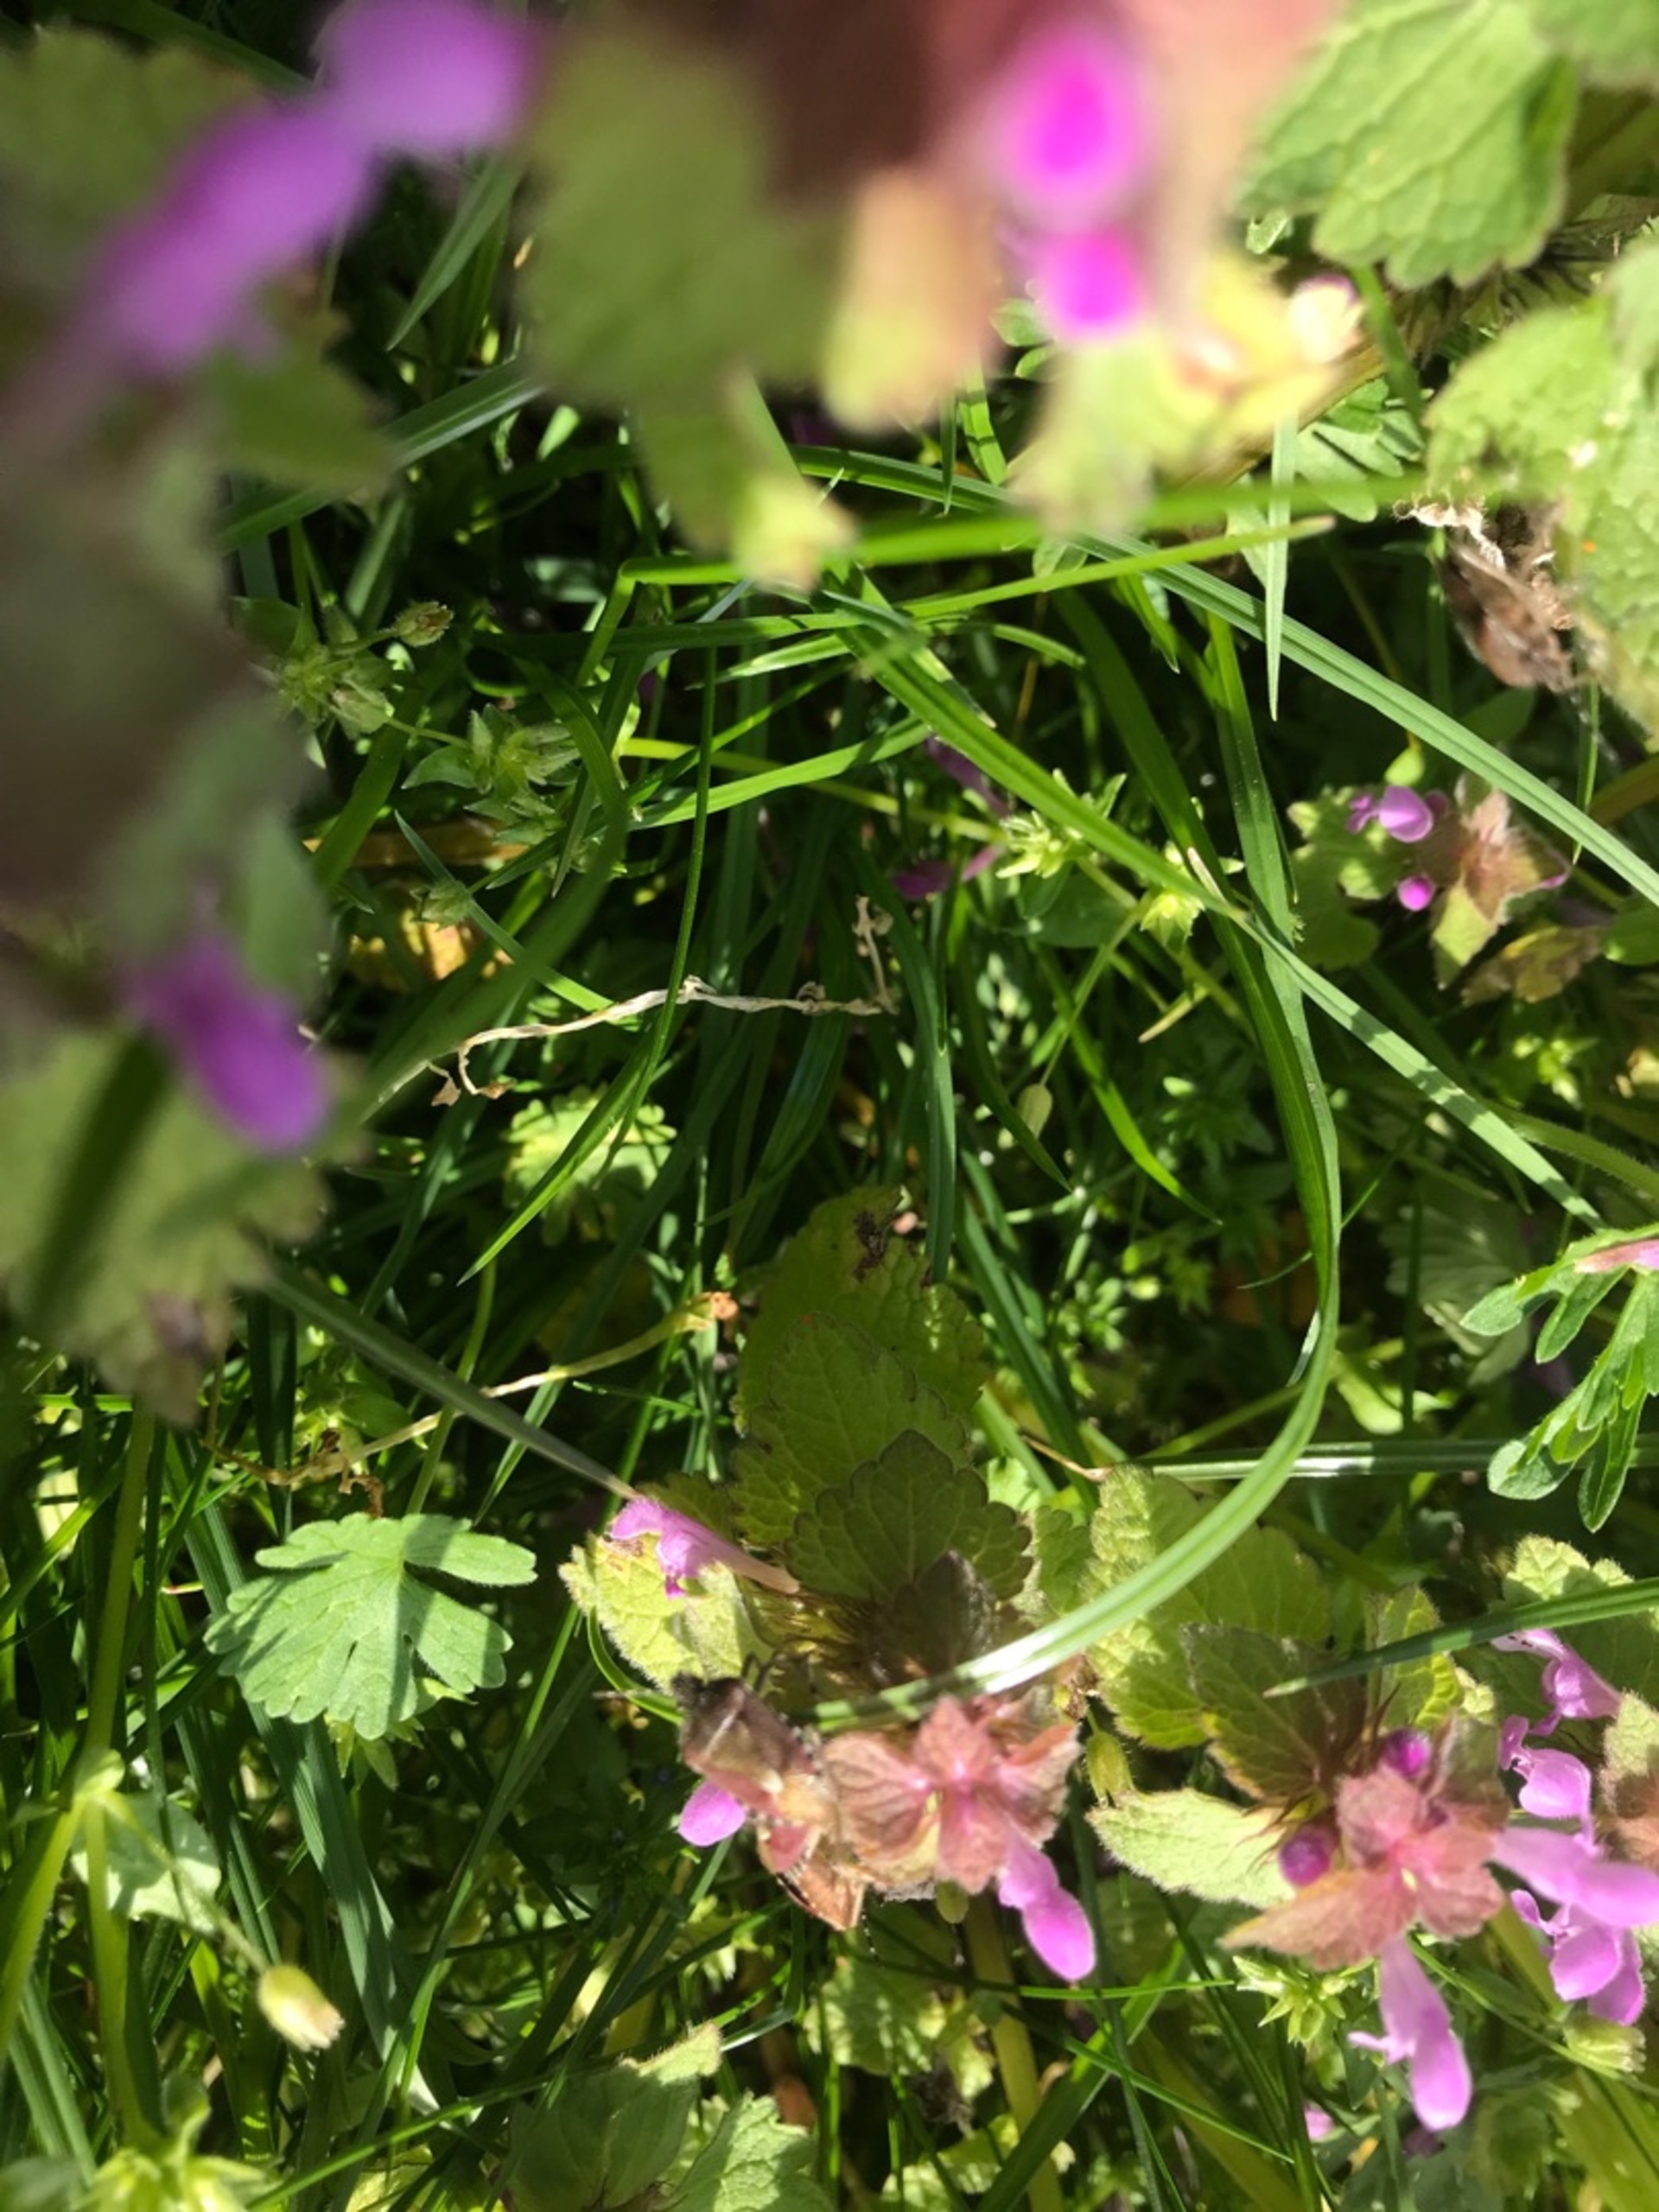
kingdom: Animalia
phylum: Arthropoda
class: Insecta
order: Hemiptera
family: Pentatomidae
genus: Dolycoris
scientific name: Dolycoris baccarum
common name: Almindelig bærtæge
